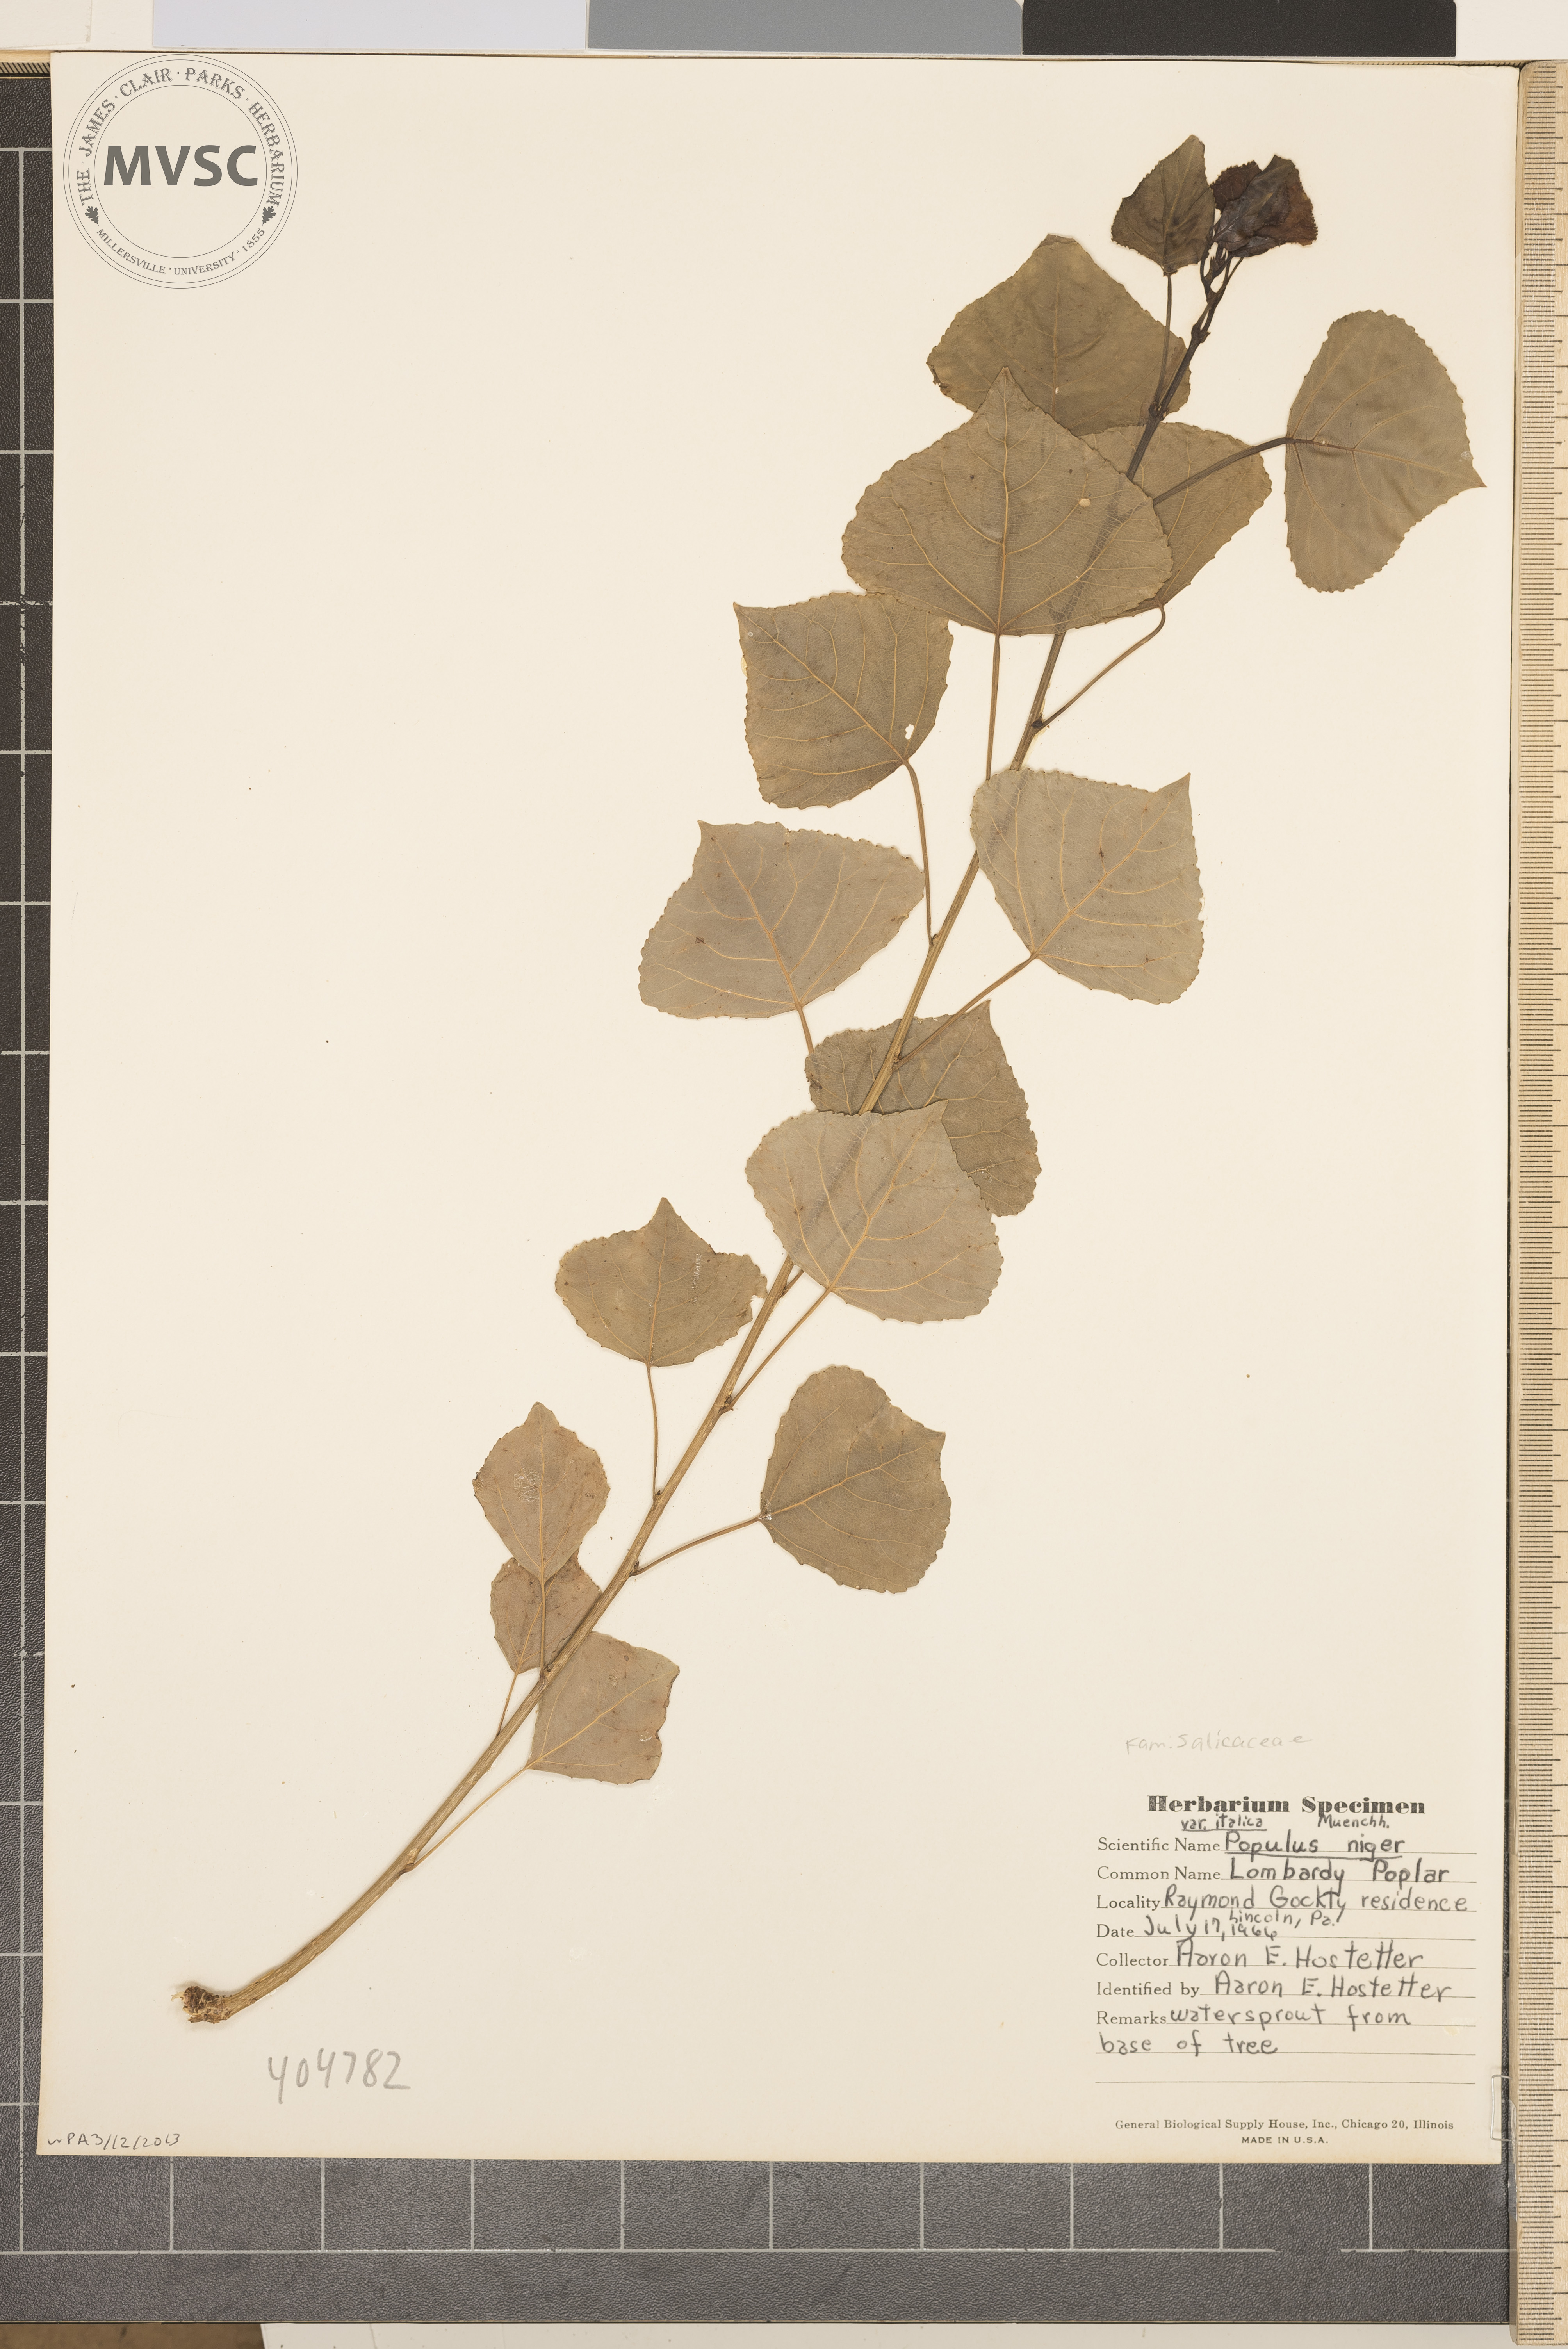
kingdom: Plantae
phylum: Tracheophyta
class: Magnoliopsida
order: Malpighiales
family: Salicaceae
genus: Populus
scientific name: Populus nigra
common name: Black poplar
